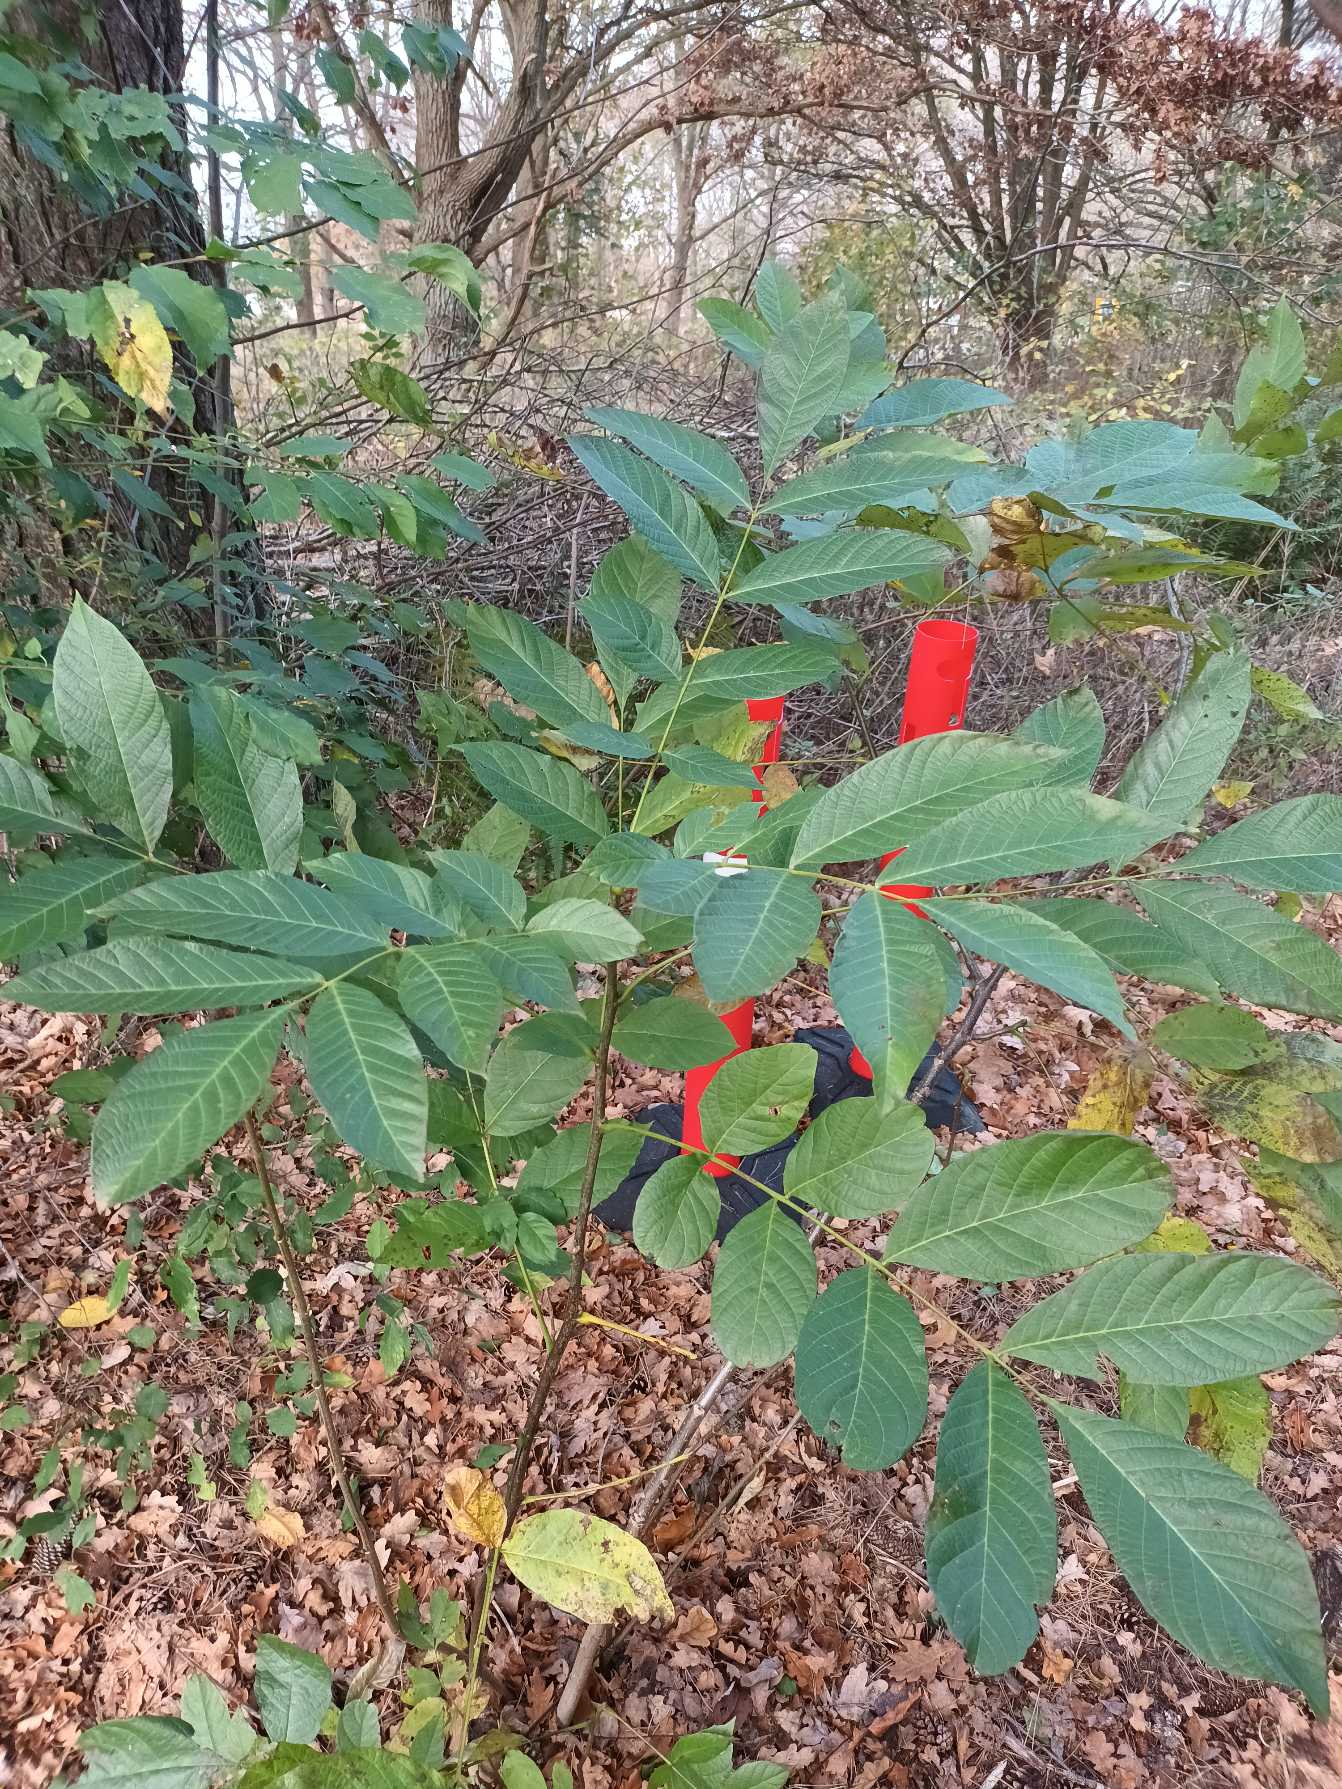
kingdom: Plantae
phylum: Tracheophyta
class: Magnoliopsida
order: Fagales
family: Juglandaceae
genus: Juglans
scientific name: Juglans regia
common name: Almindelig valnød
